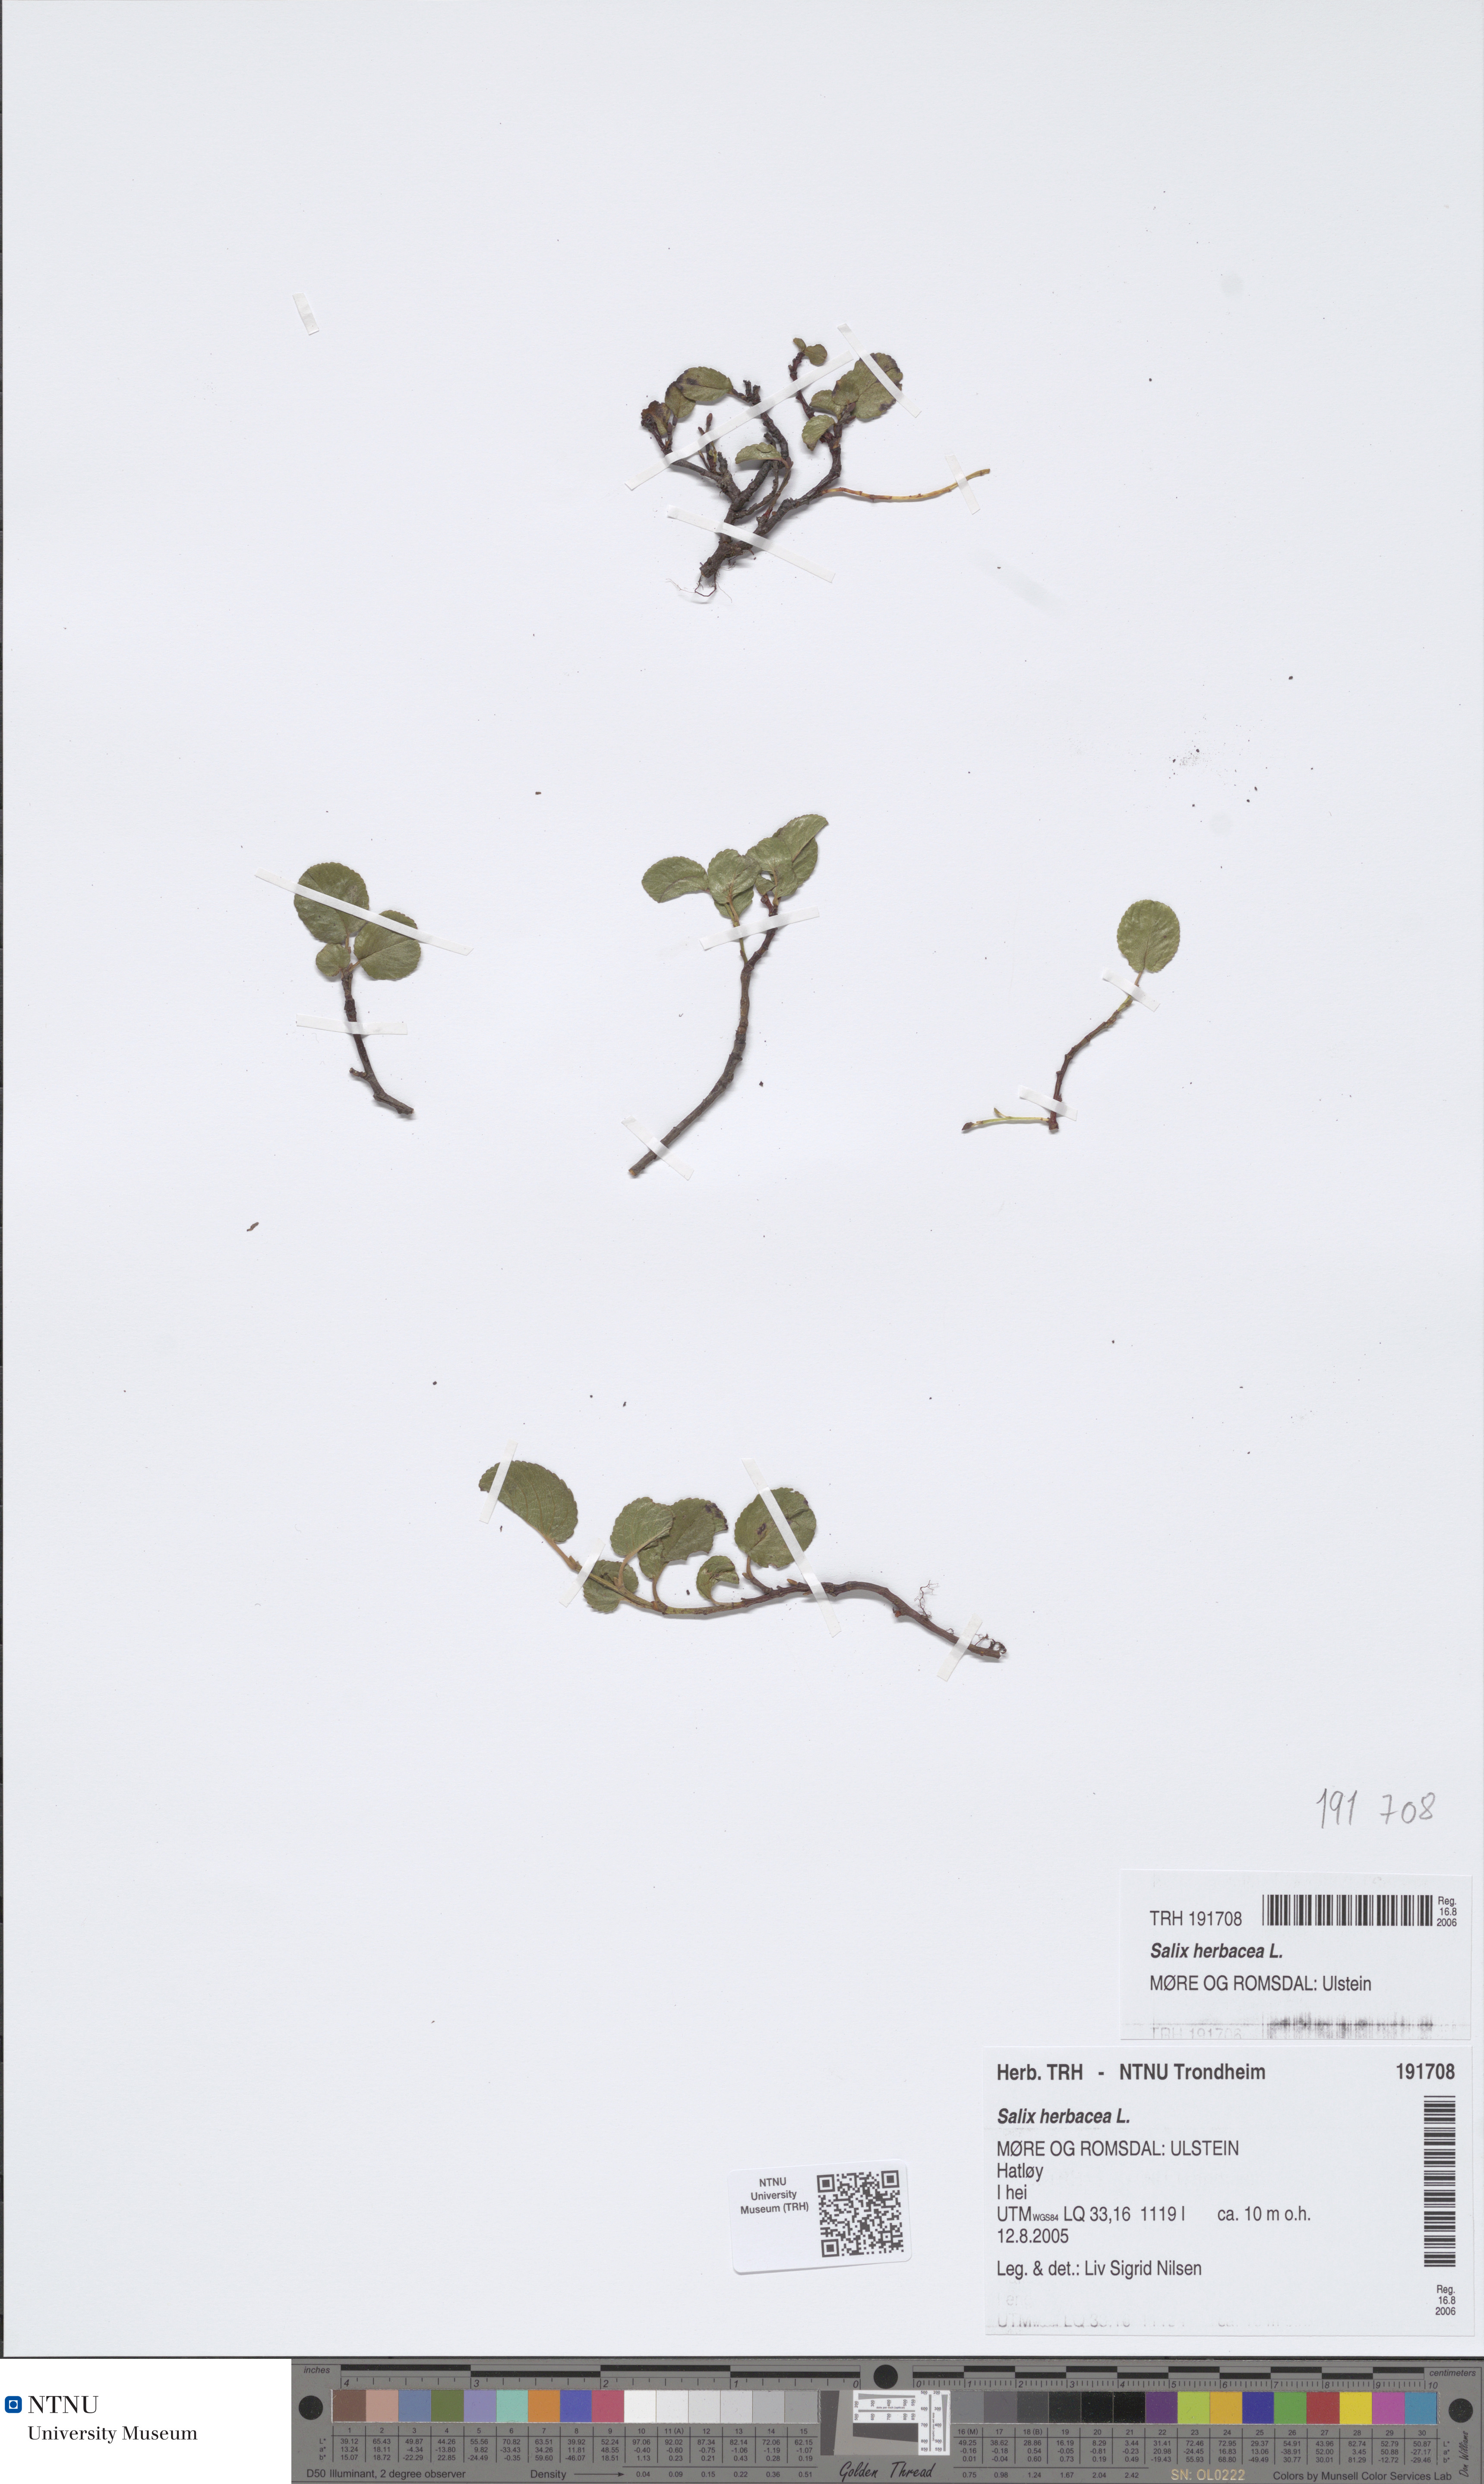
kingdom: Plantae
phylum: Tracheophyta
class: Magnoliopsida
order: Malpighiales
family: Salicaceae
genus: Salix
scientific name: Salix herbacea
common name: Dwarf willow
